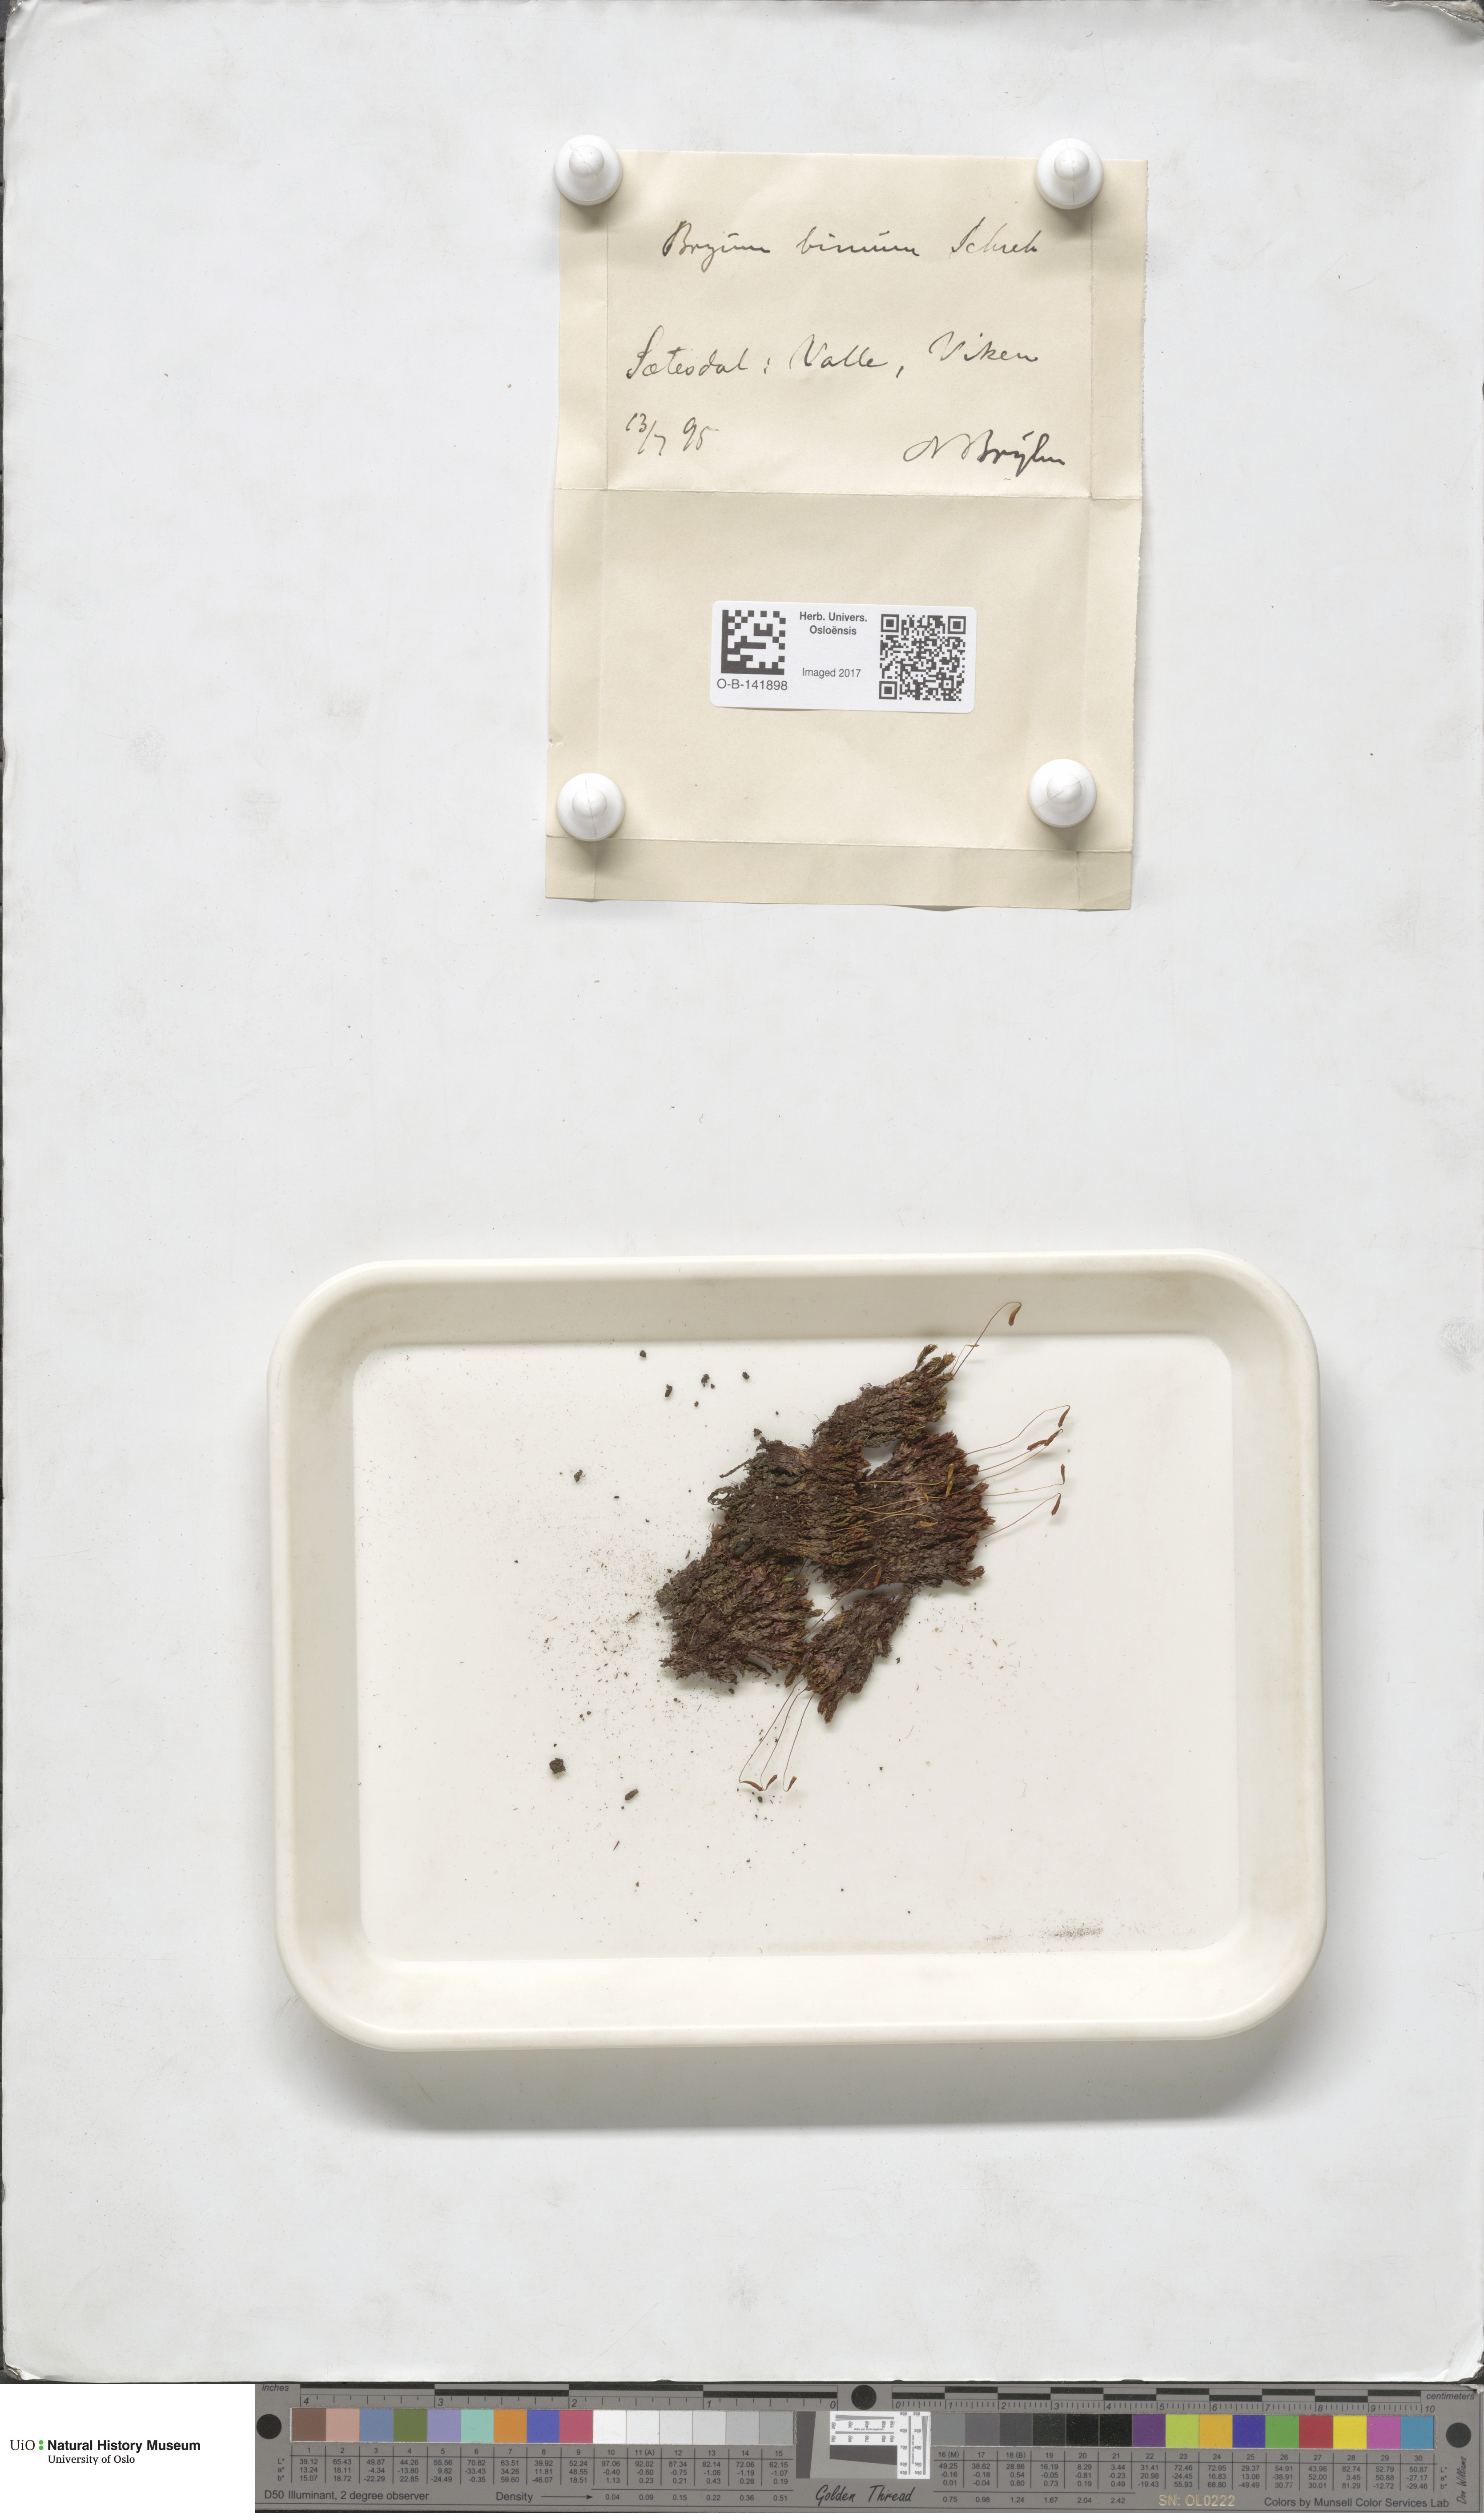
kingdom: Plantae
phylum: Bryophyta
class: Bryopsida
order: Bryales
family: Bryaceae
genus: Ptychostomum
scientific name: Ptychostomum pseudotriquetrum
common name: Long-leaved thread moss
